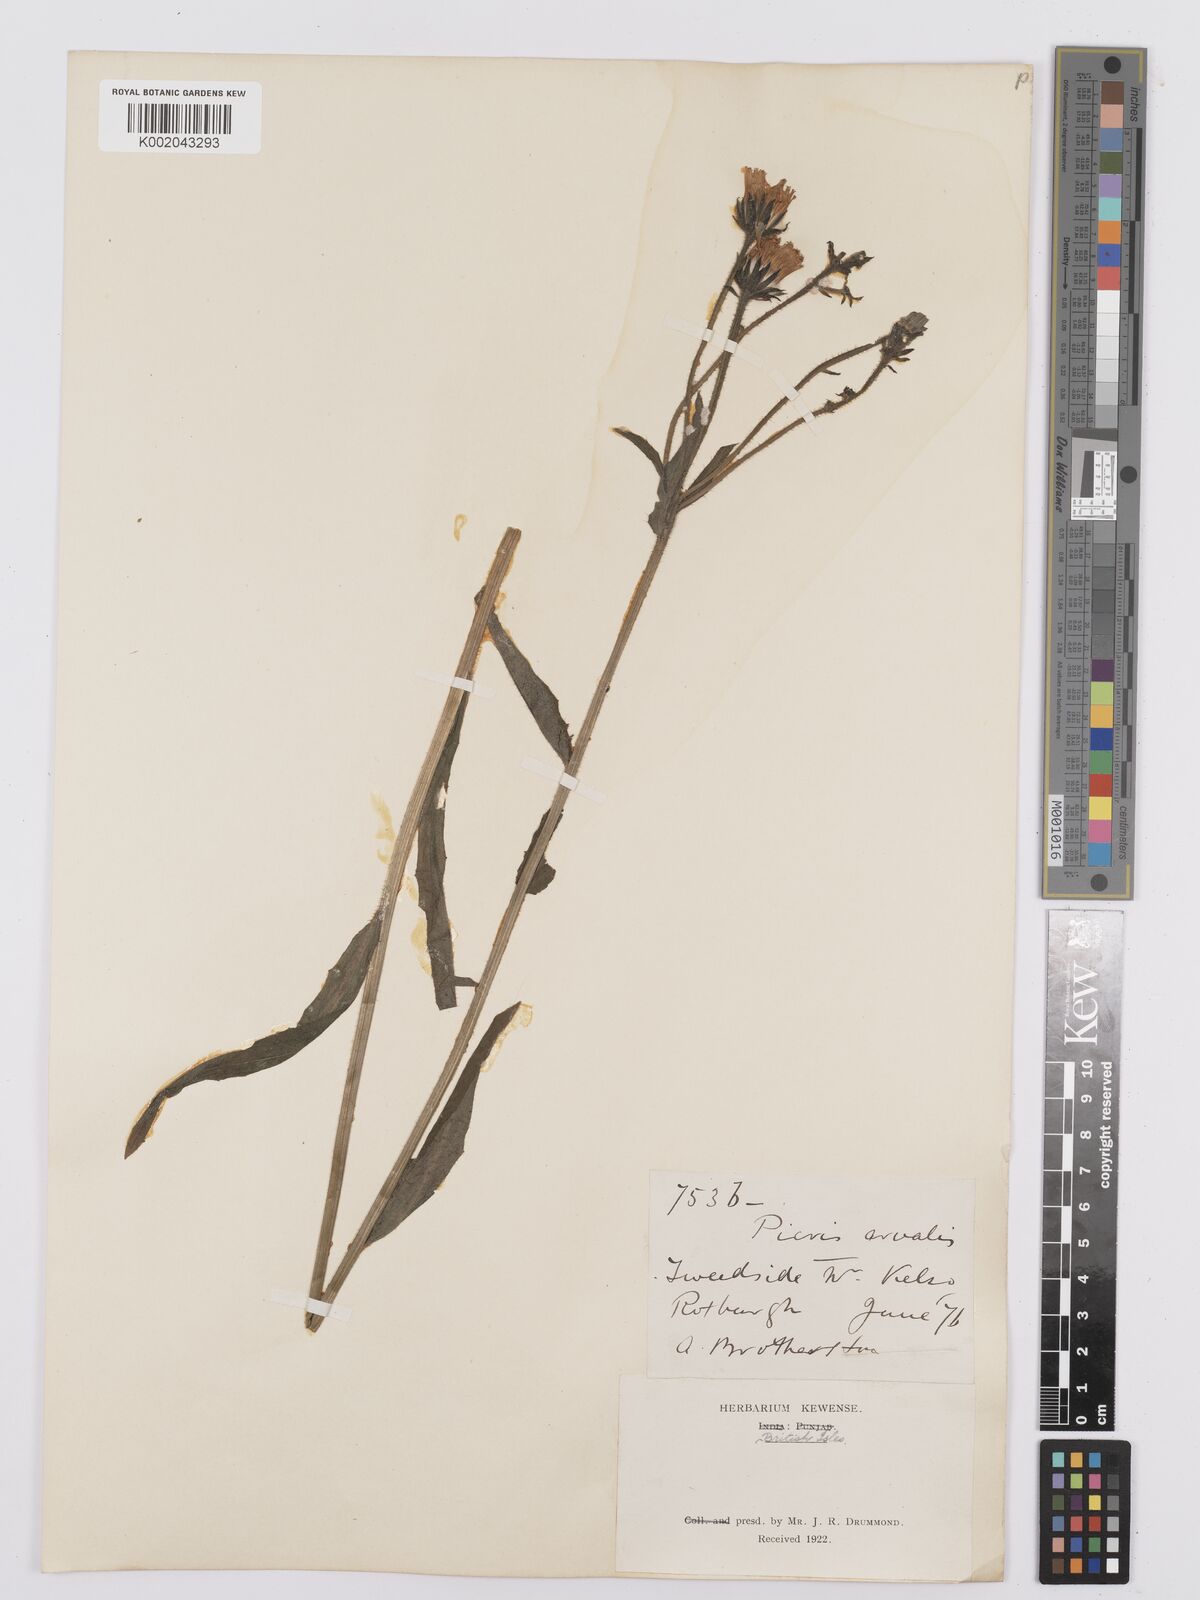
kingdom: Plantae
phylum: Tracheophyta
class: Magnoliopsida
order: Asterales
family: Asteraceae
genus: Picris
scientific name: Picris hieracioides
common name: Hawkweed oxtongue
